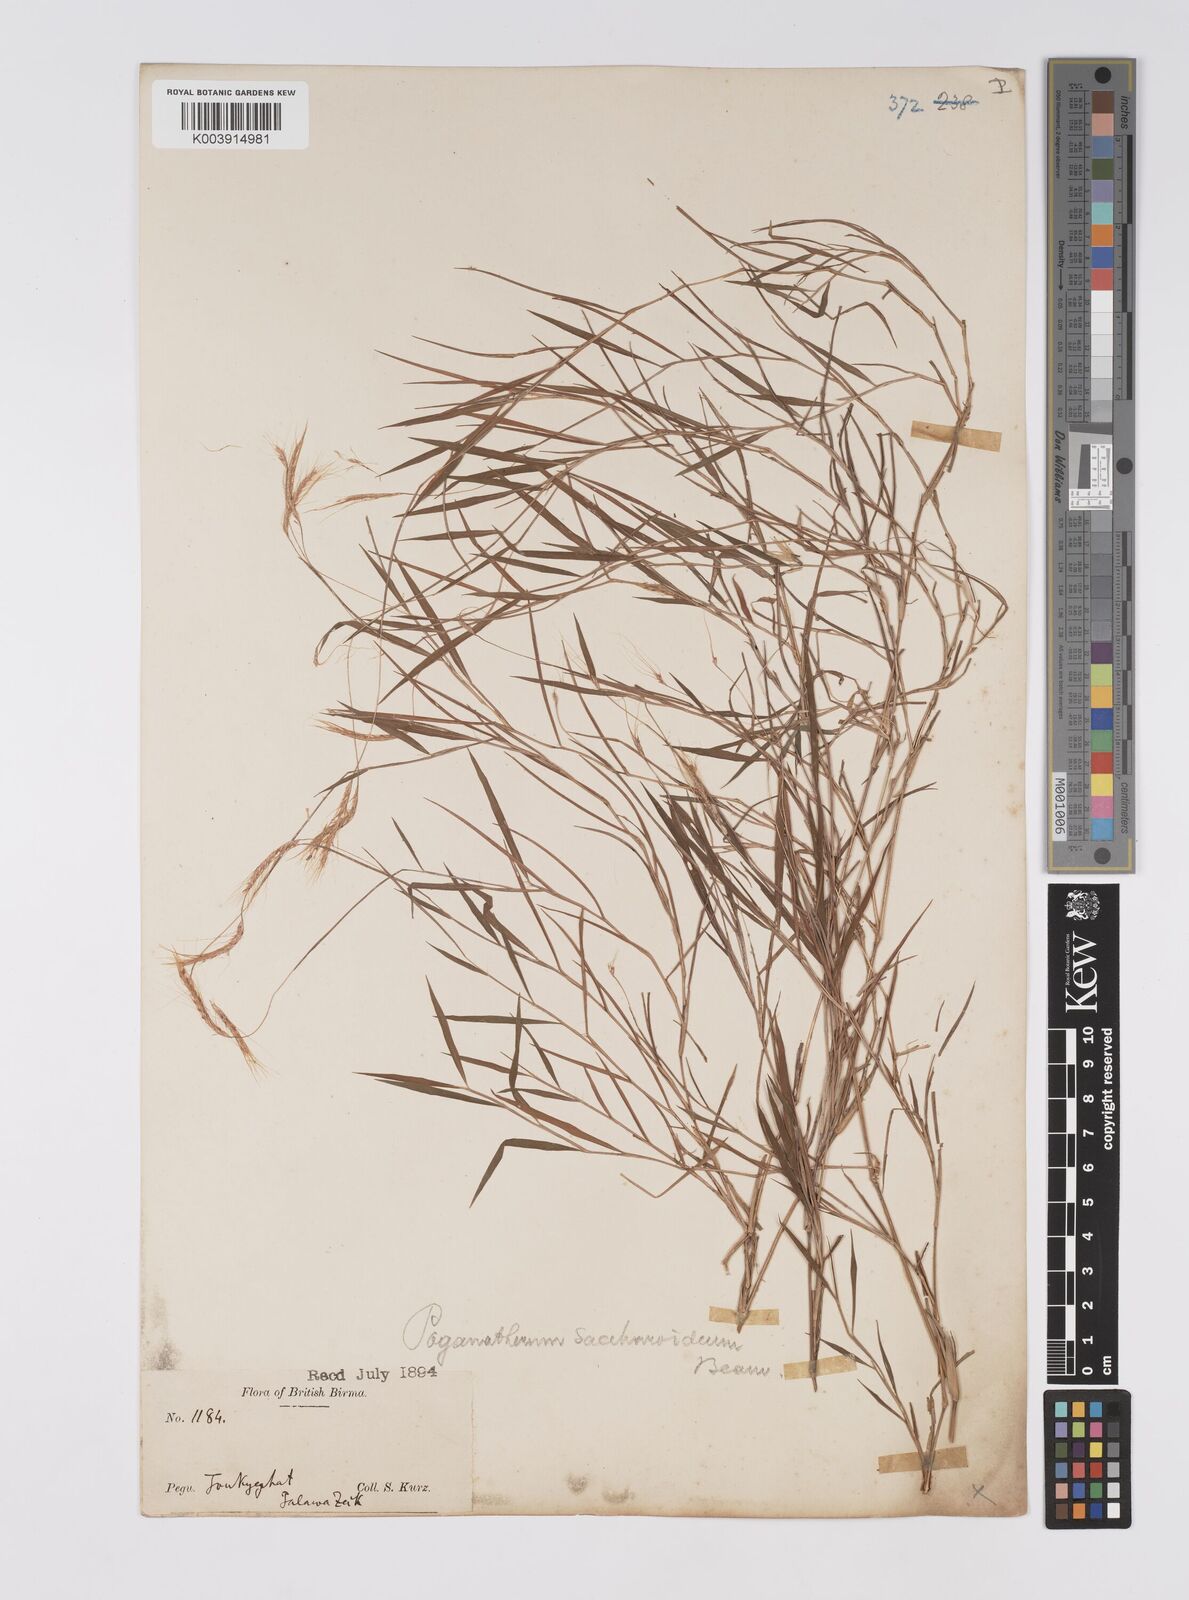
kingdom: Plantae
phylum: Tracheophyta
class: Liliopsida
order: Poales
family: Poaceae
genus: Pogonatherum
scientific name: Pogonatherum paniceum
